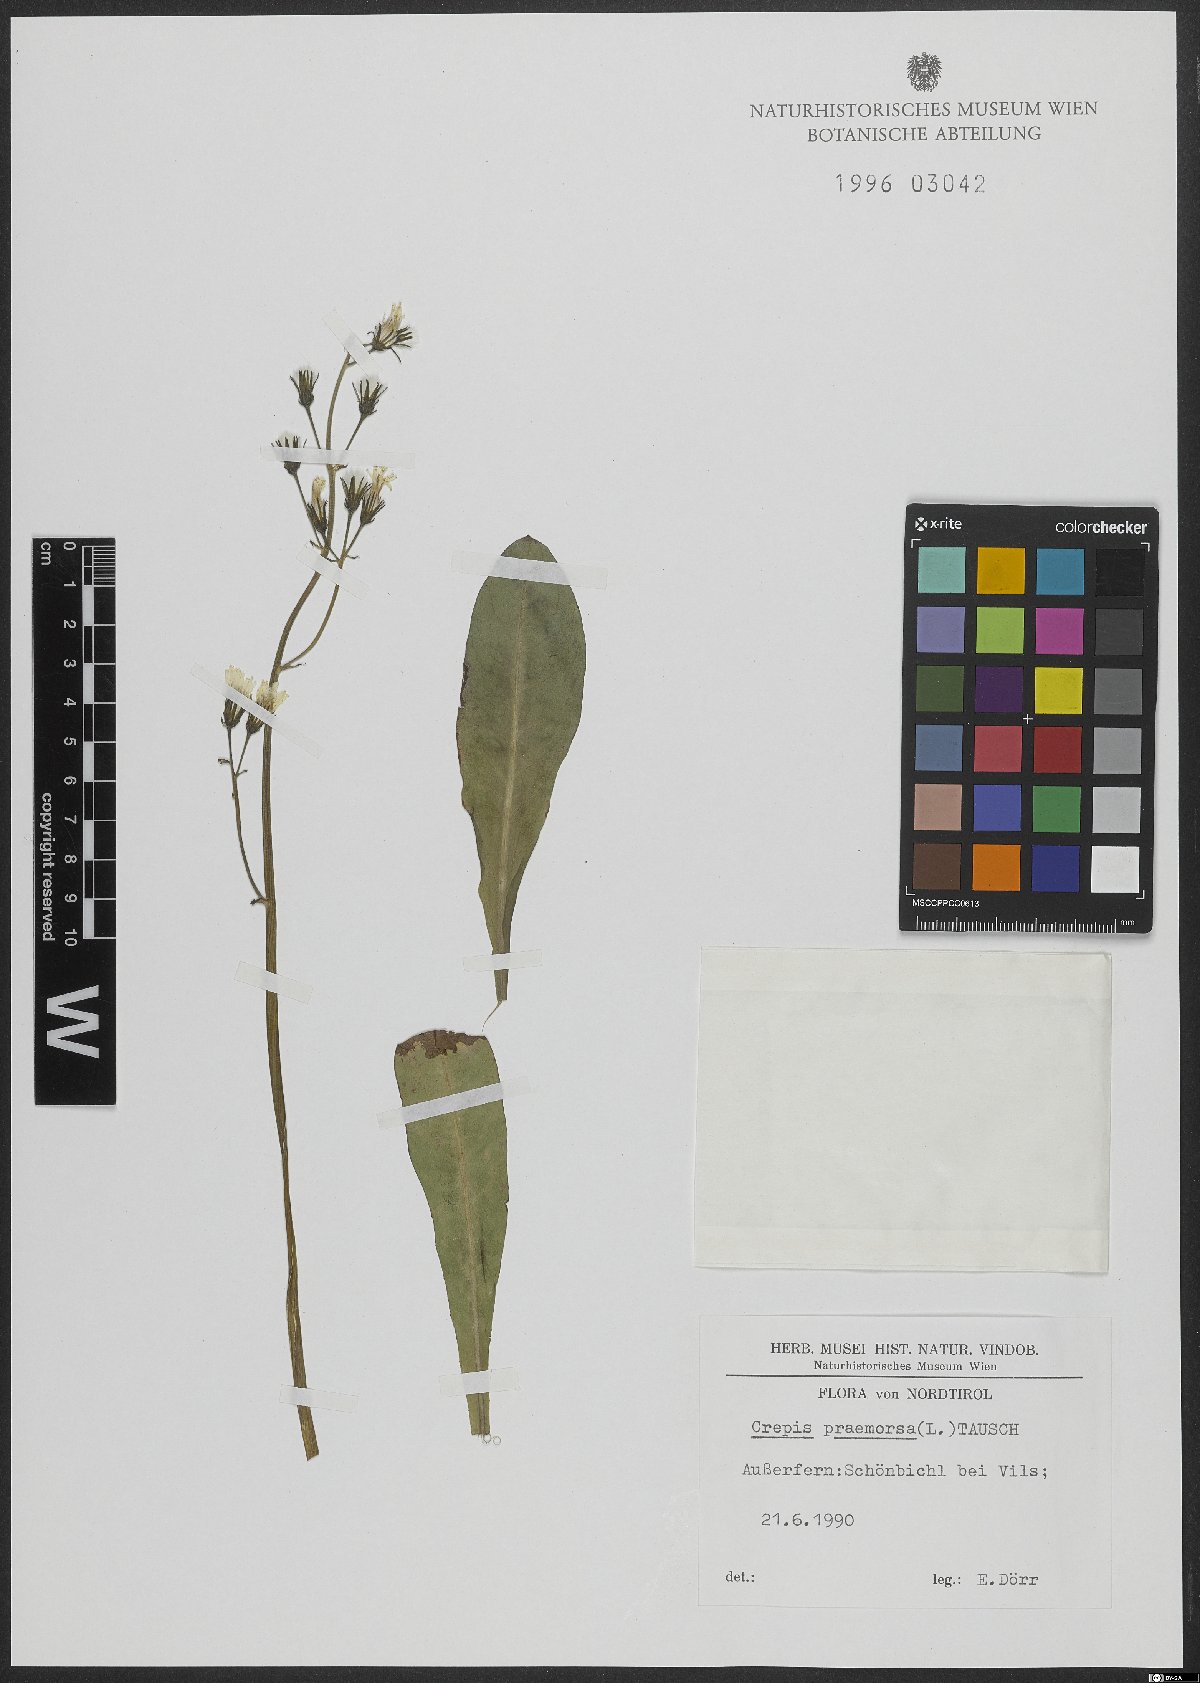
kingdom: Plantae
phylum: Tracheophyta
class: Magnoliopsida
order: Asterales
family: Asteraceae
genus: Crepis
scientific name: Crepis praemorsa
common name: Leafless hawk's-beard
